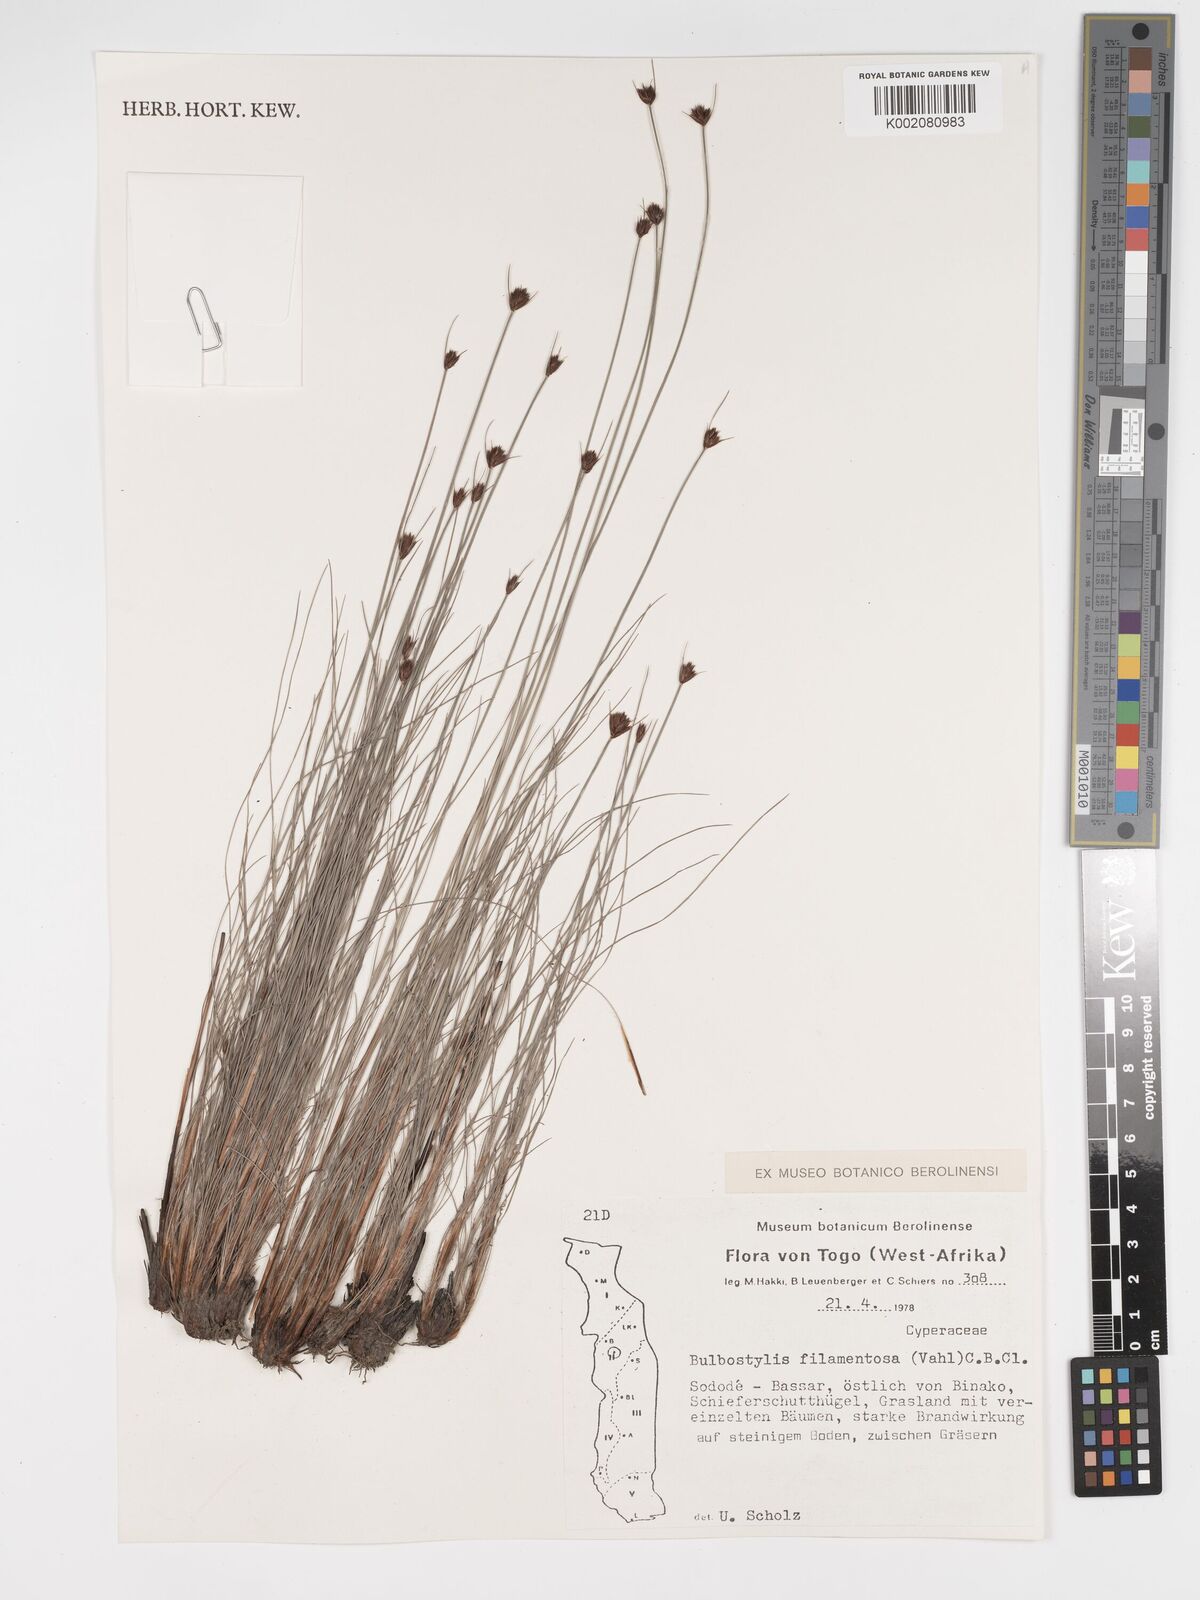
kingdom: Plantae
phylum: Tracheophyta
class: Liliopsida
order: Poales
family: Cyperaceae
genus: Bulbostylis
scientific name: Bulbostylis filamentosa
